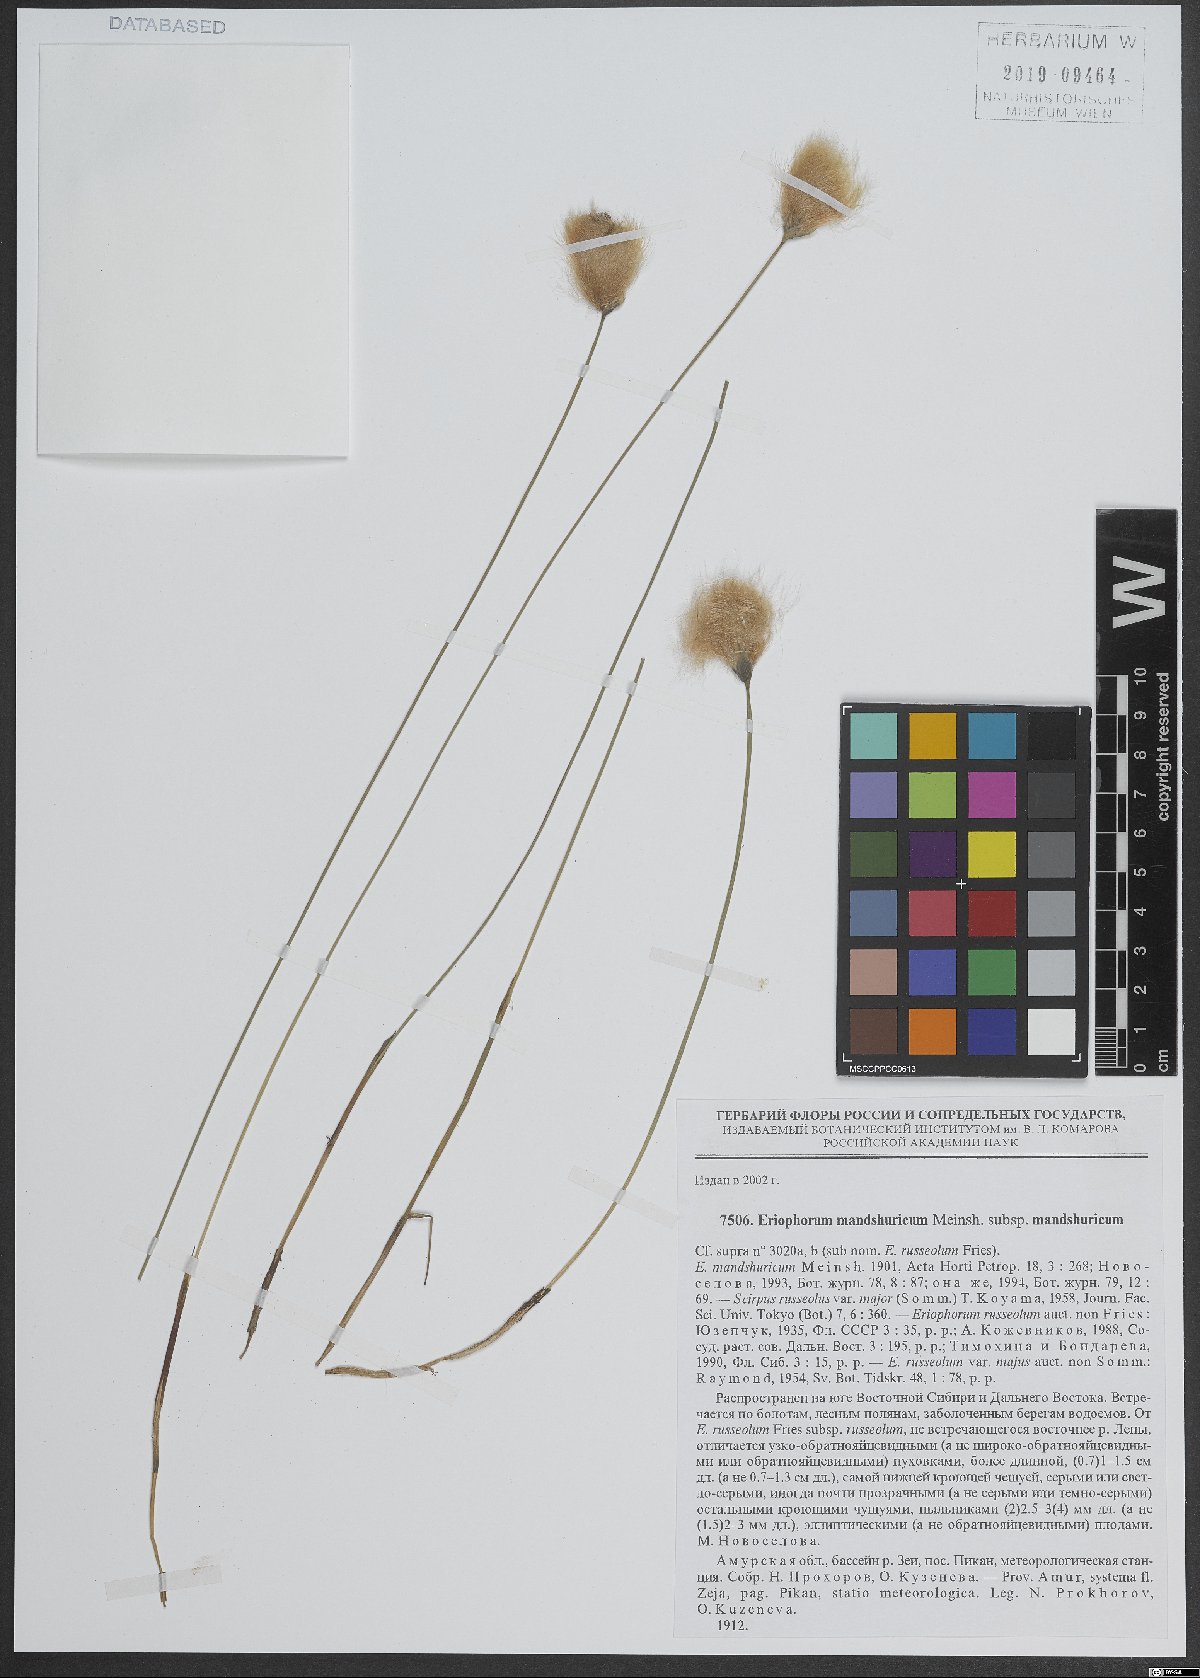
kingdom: Plantae
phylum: Tracheophyta
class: Liliopsida
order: Poales
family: Cyperaceae
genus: Eriophorum
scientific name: Eriophorum chamissonis
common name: Chamisso's cottongrass
